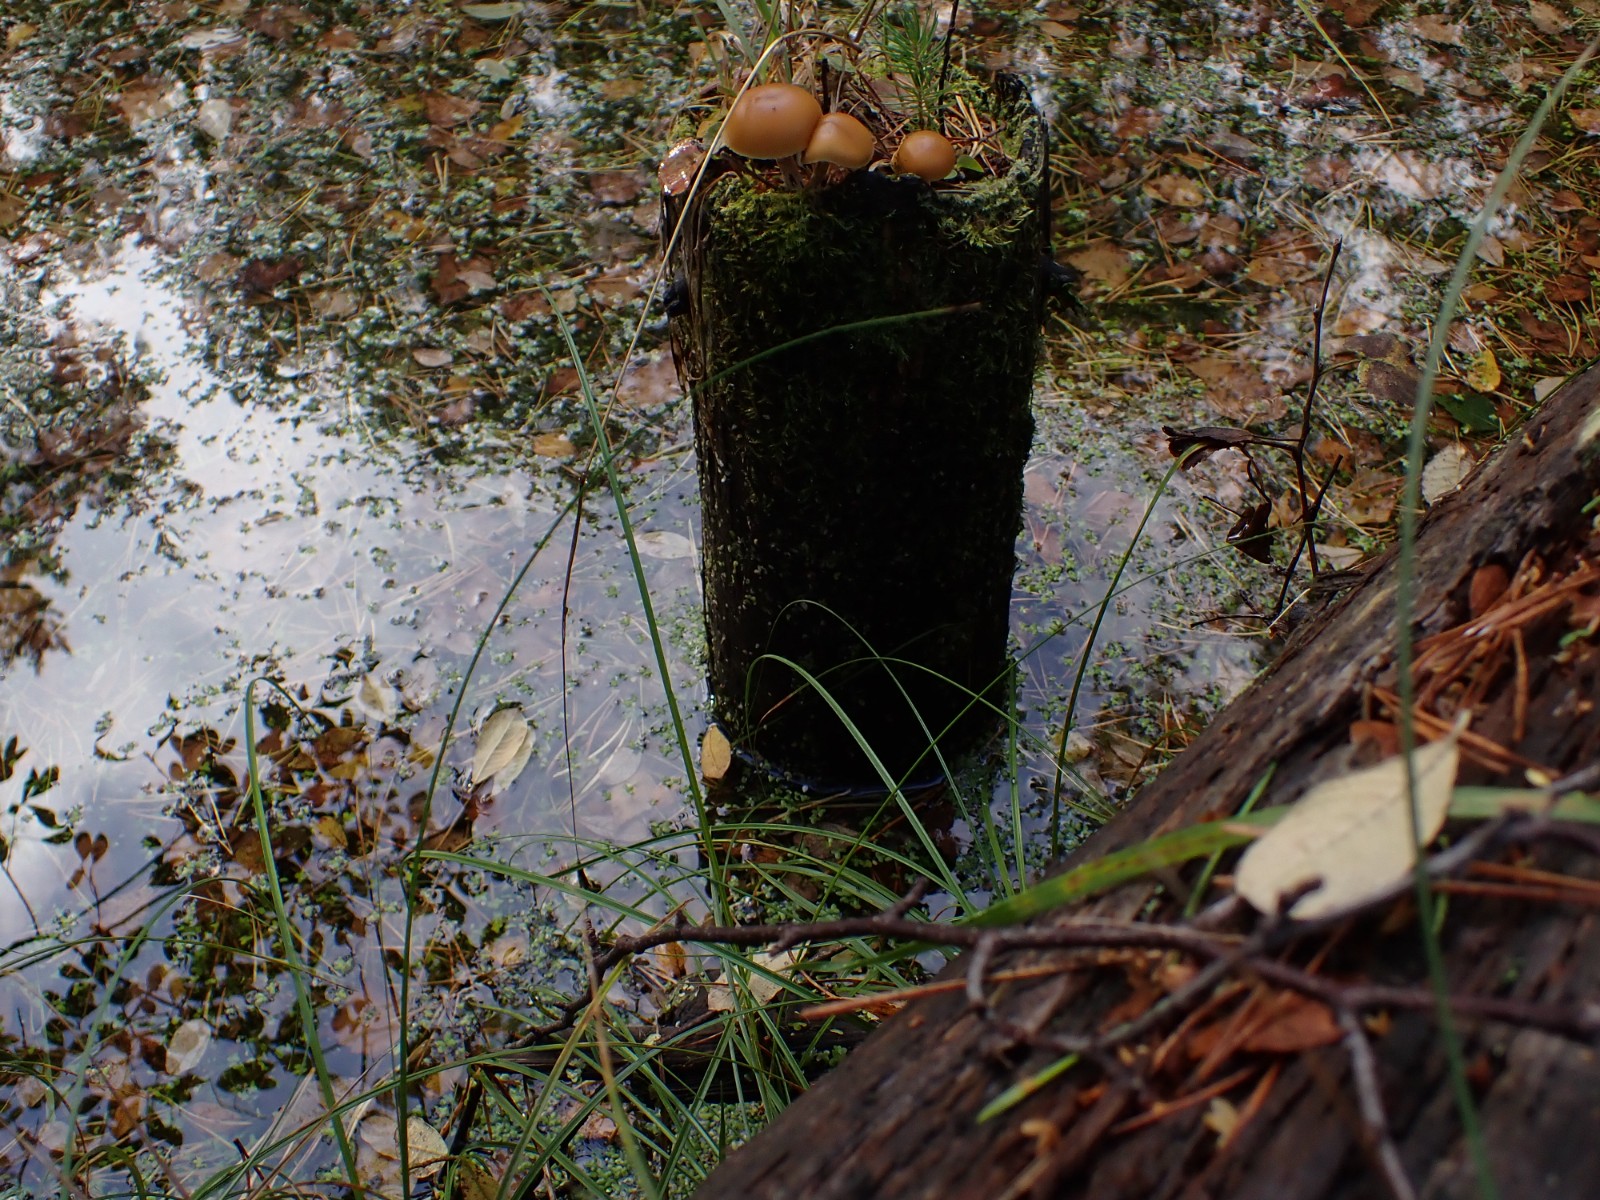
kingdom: Fungi
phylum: Basidiomycota
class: Agaricomycetes
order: Agaricales
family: Hymenogastraceae
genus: Galerina
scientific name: Galerina marginata
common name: randbæltet hjelmhat
